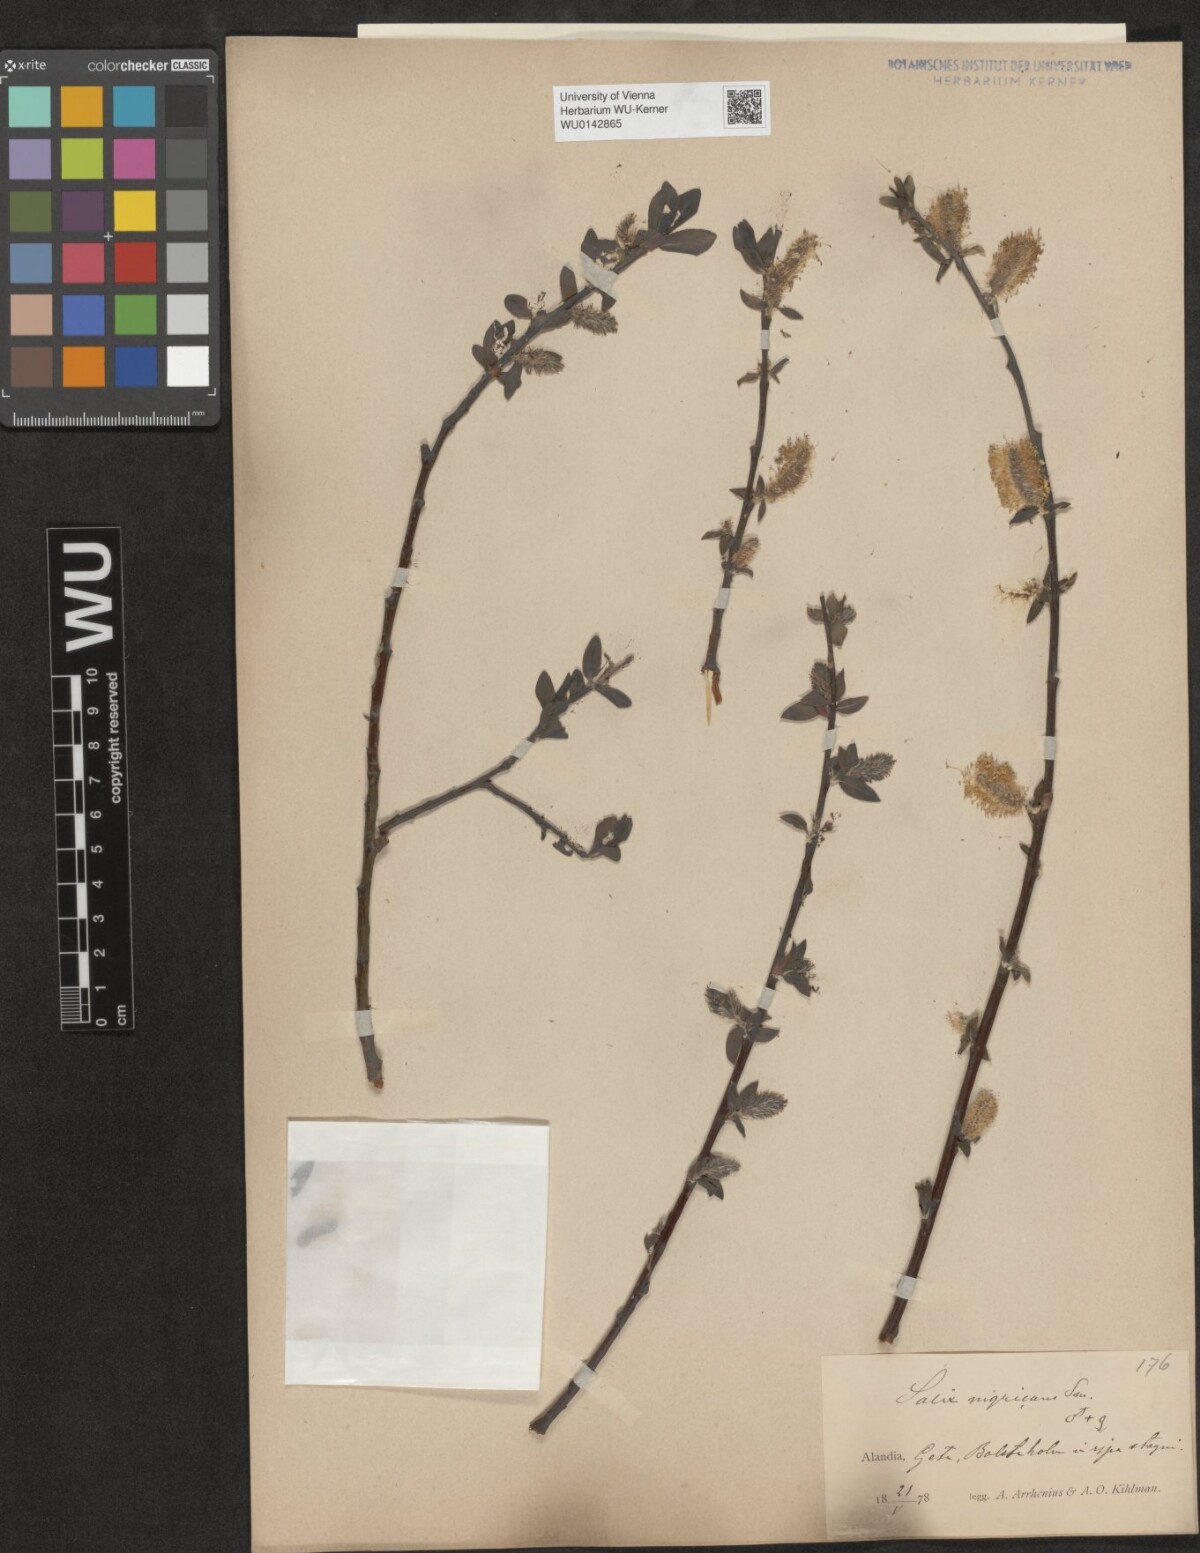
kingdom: Plantae
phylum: Tracheophyta
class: Magnoliopsida
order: Malpighiales
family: Salicaceae
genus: Salix
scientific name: Salix myrsinifolia
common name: Dark-leaved willow
